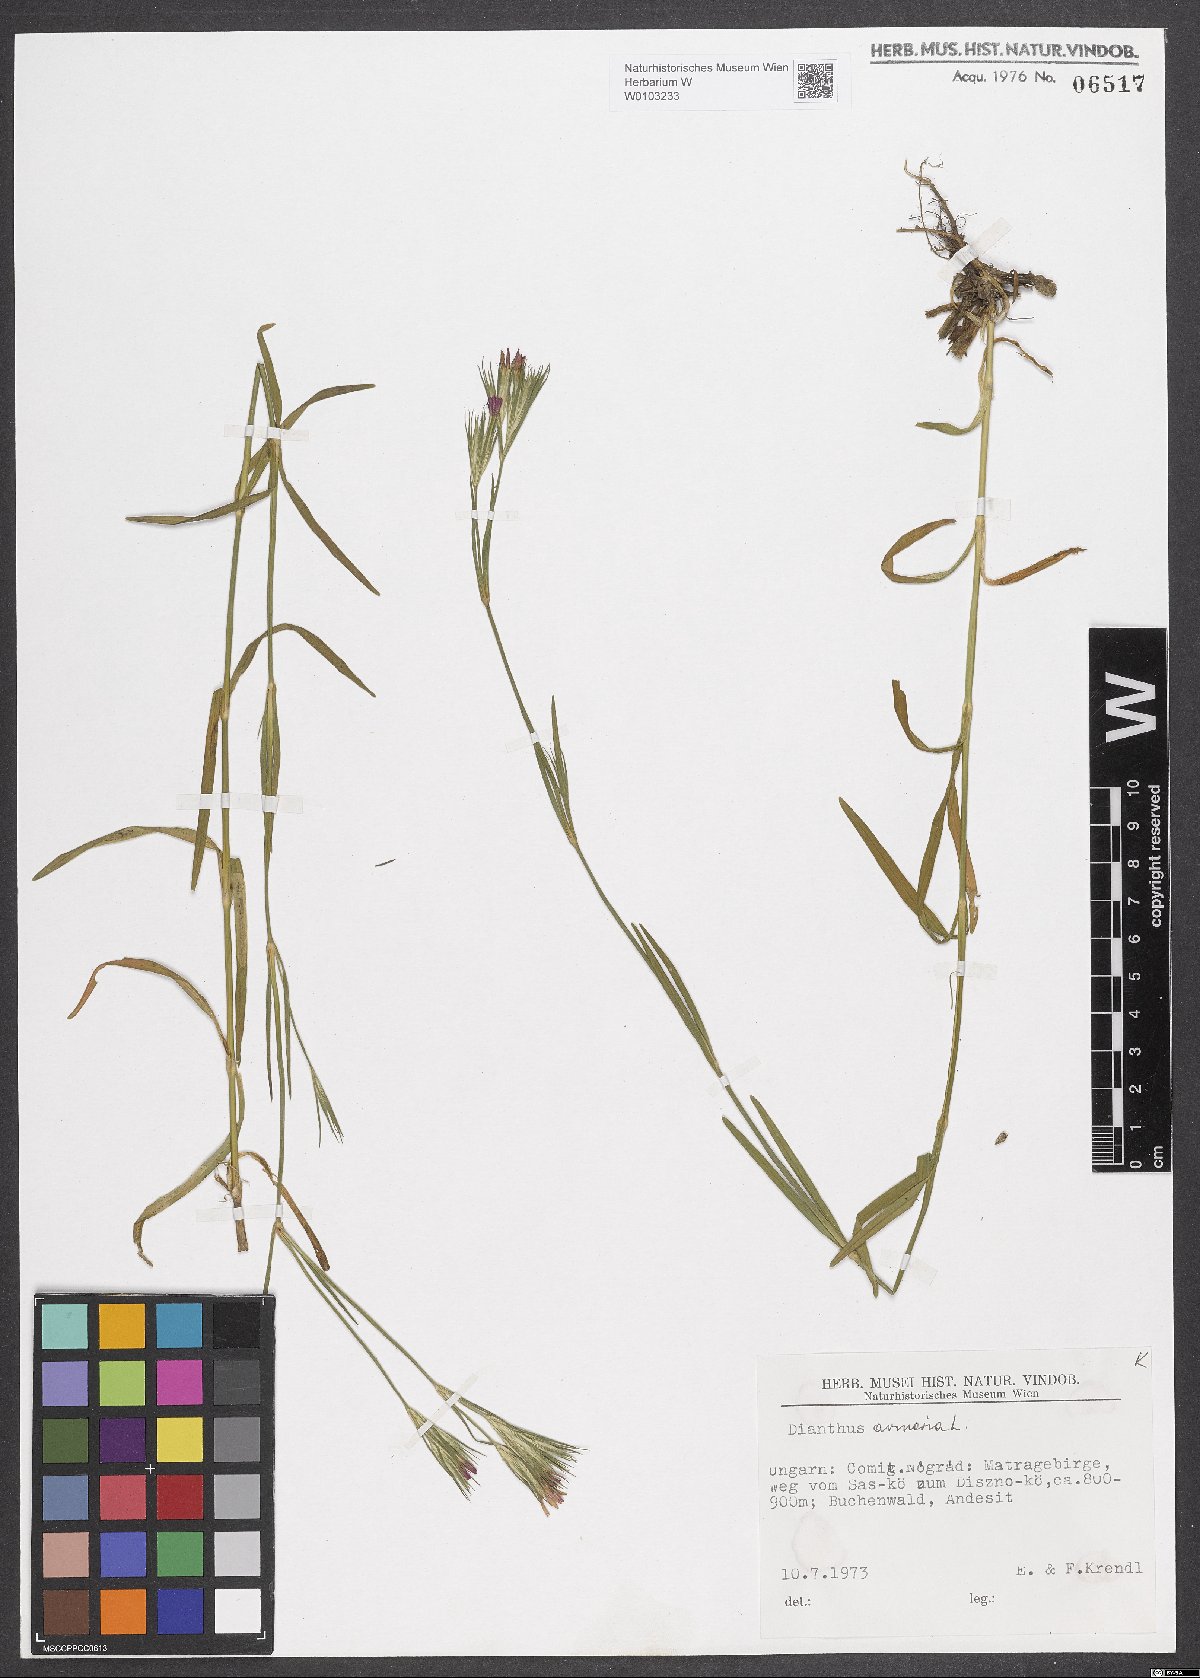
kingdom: Plantae
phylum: Tracheophyta
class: Magnoliopsida
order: Caryophyllales
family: Caryophyllaceae
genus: Dianthus
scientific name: Dianthus armeria
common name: Deptford pink
